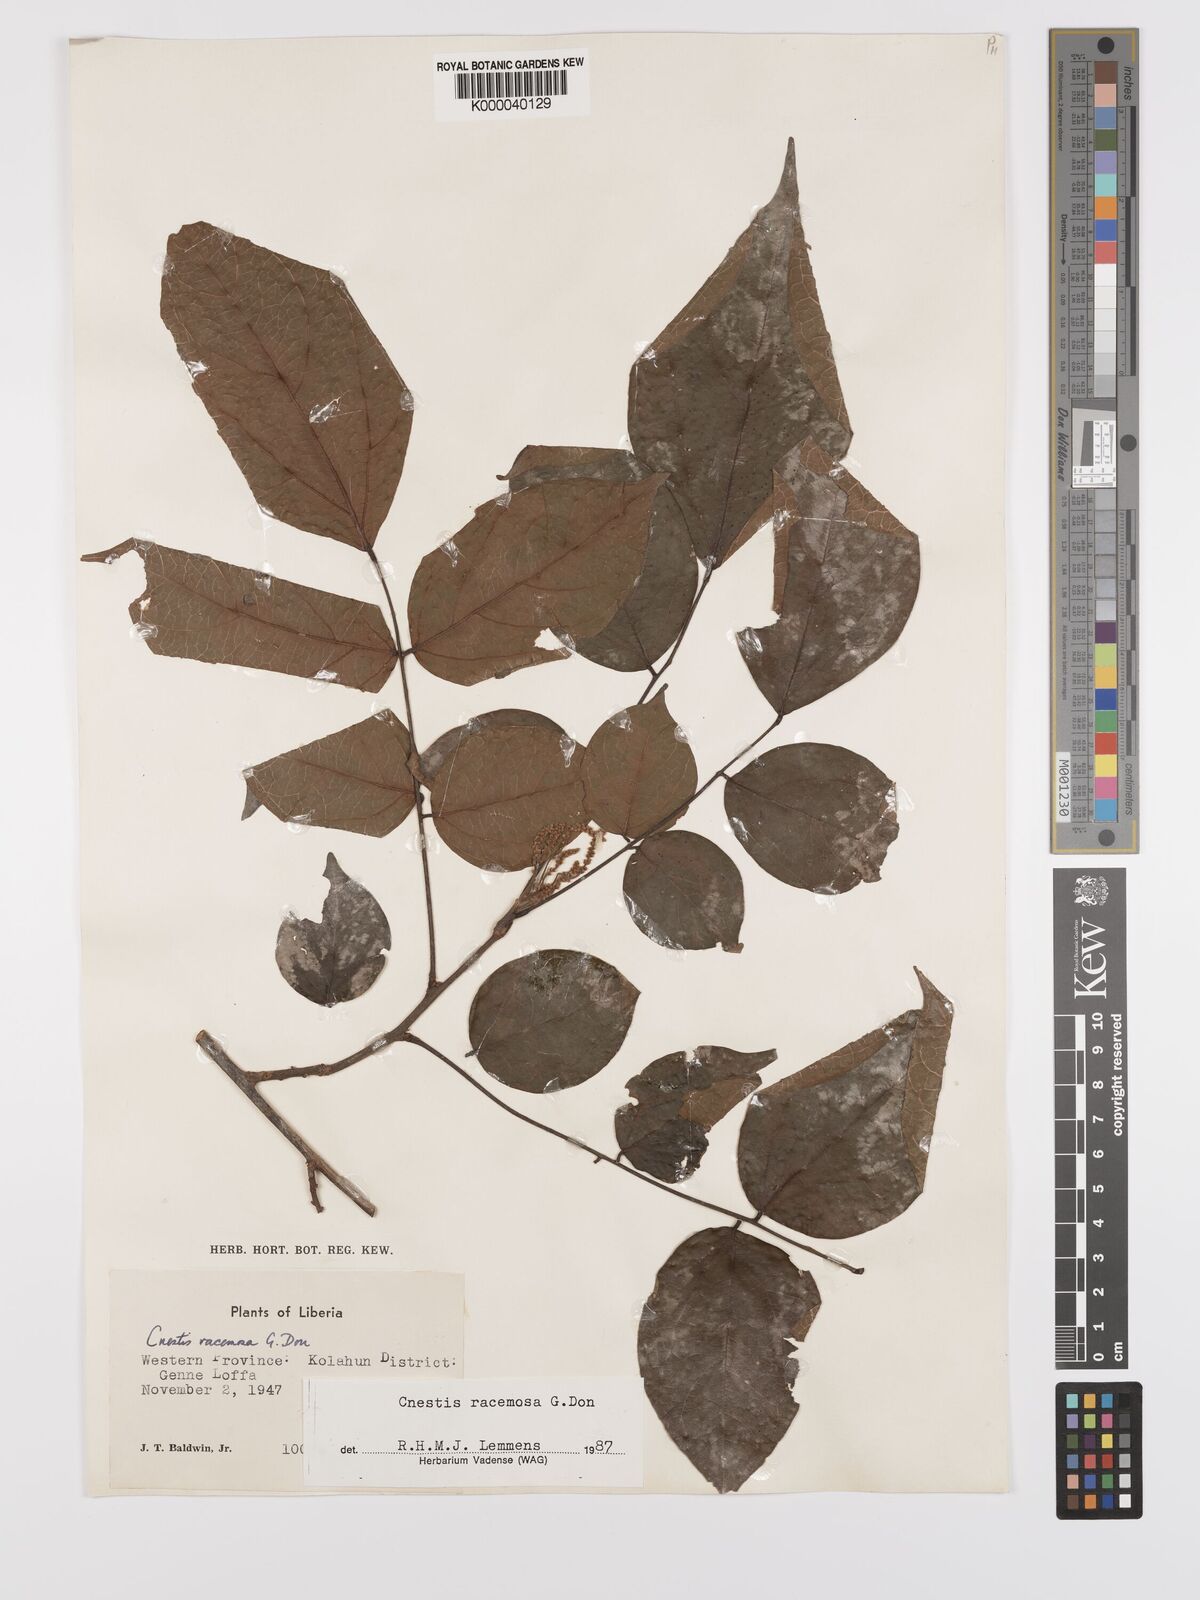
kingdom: Plantae
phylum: Tracheophyta
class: Magnoliopsida
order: Oxalidales
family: Connaraceae
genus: Cnestis
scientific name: Cnestis racemosa
